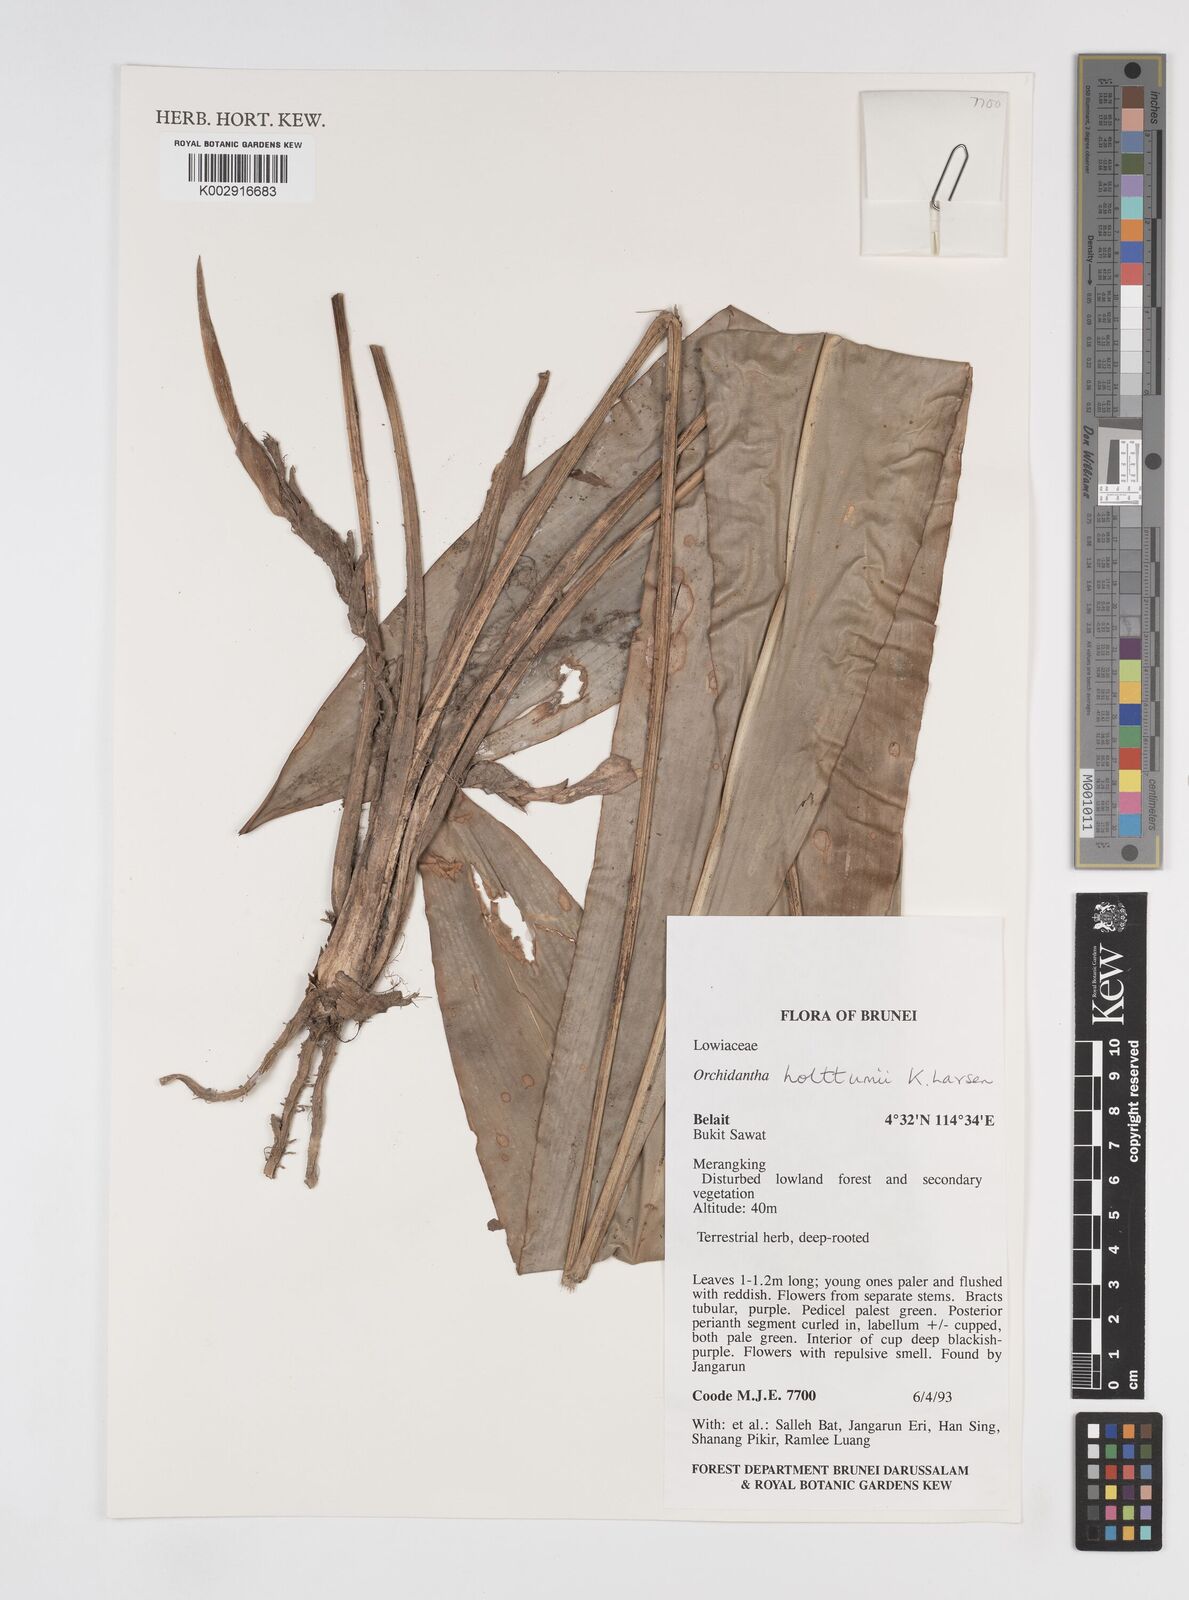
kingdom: Plantae
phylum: Tracheophyta
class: Liliopsida
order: Zingiberales
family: Lowiaceae
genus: Orchidantha
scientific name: Orchidantha holttumii
